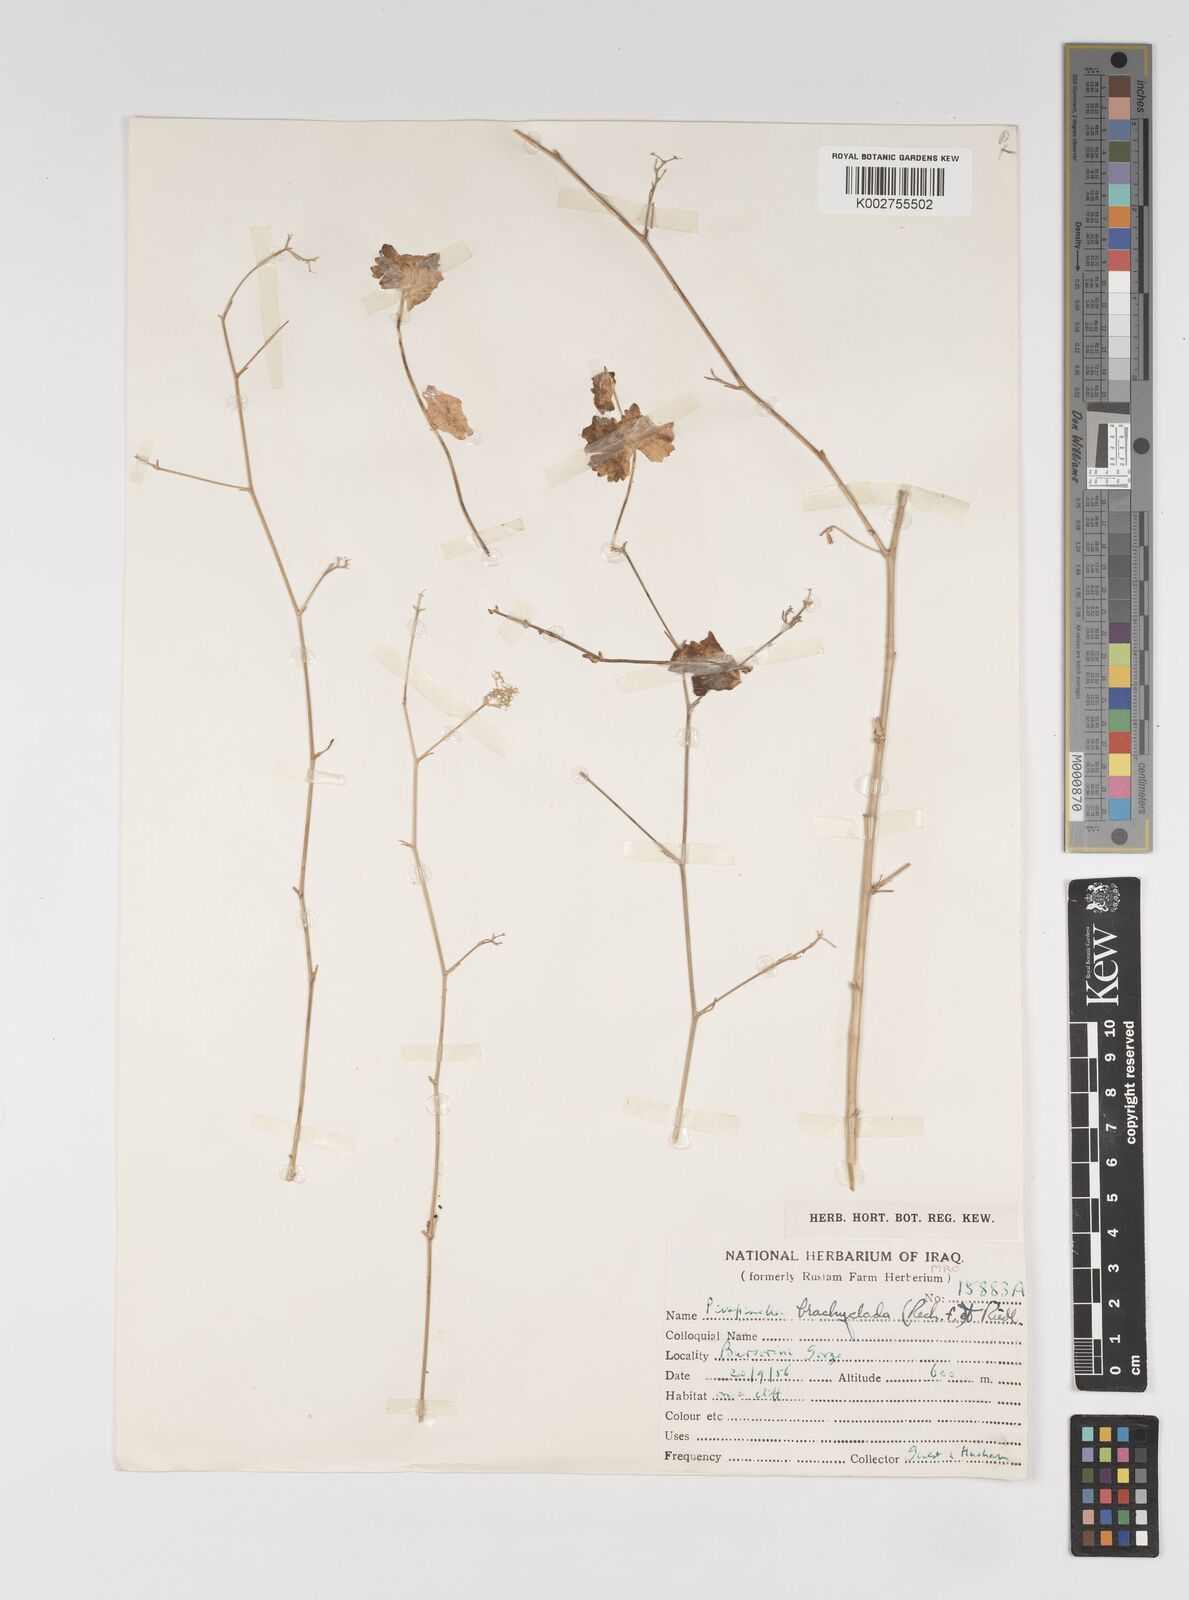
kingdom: Plantae
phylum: Tracheophyta
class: Magnoliopsida
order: Apiales
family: Apiaceae
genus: Pimpinella
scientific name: Pimpinella brachyclada
